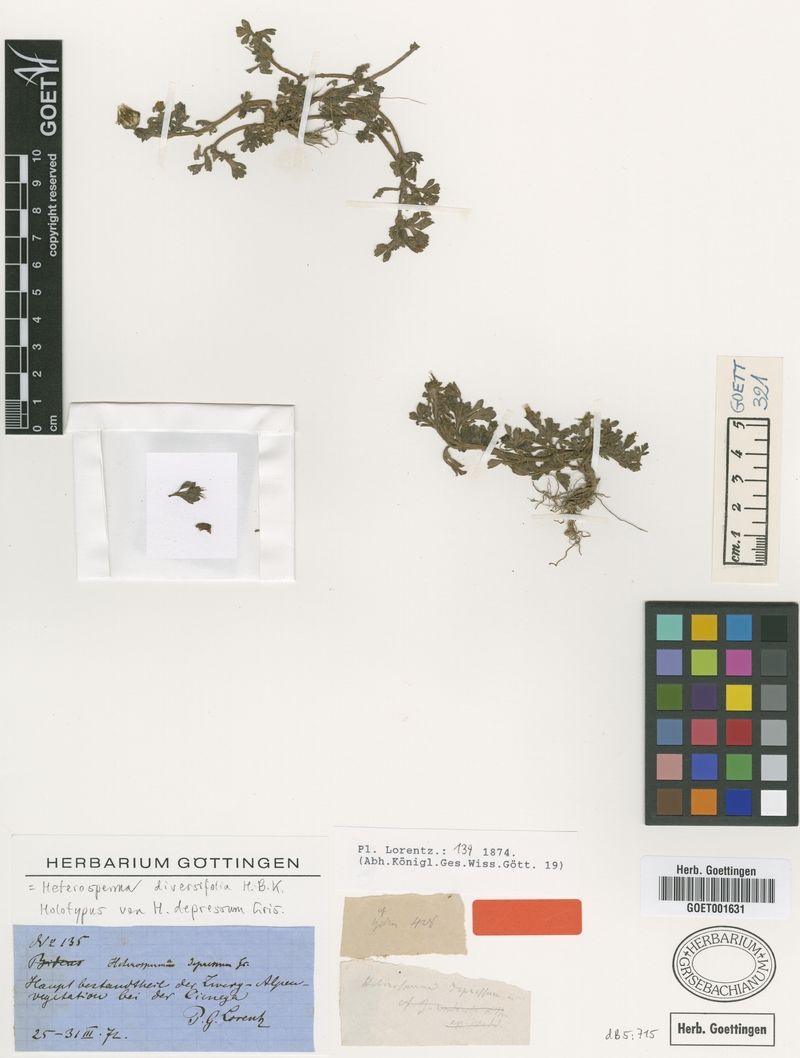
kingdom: Plantae
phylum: Tracheophyta
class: Magnoliopsida
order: Asterales
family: Asteraceae
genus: Heterosperma
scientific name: Heterosperma diversifolium
